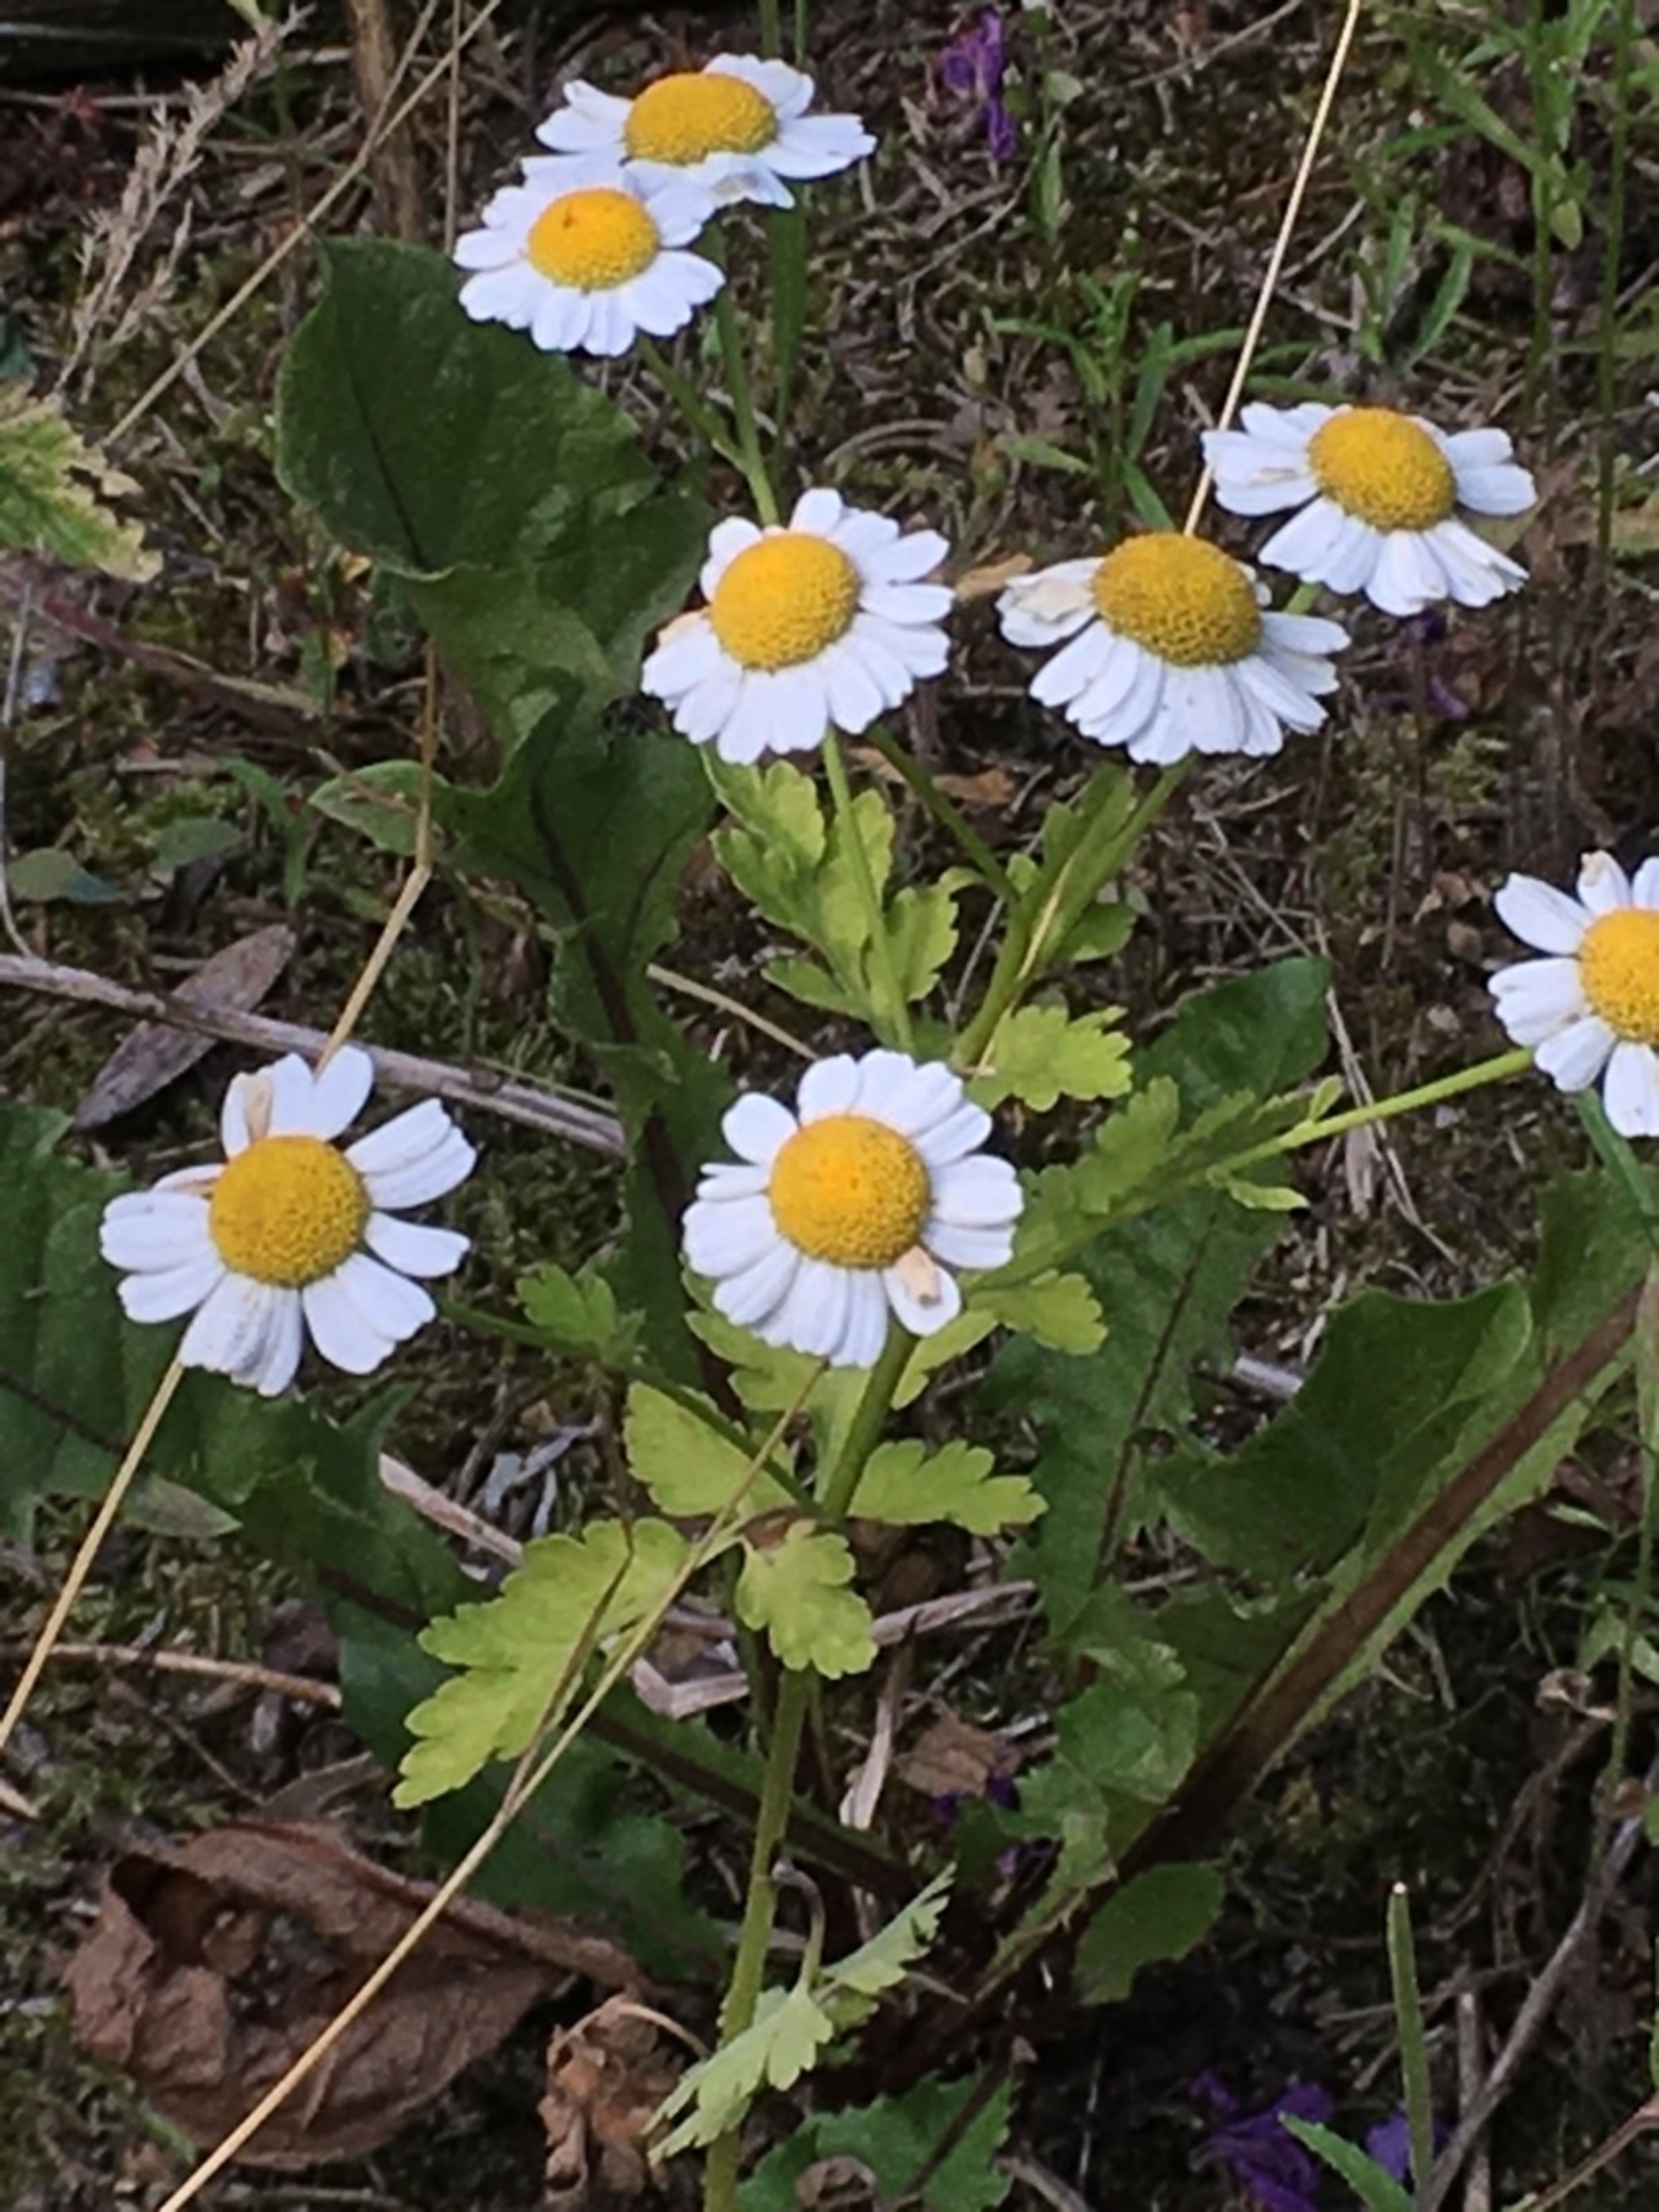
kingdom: Plantae
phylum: Tracheophyta
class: Magnoliopsida
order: Asterales
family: Asteraceae
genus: Tanacetum
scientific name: Tanacetum parthenium
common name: Matrem
